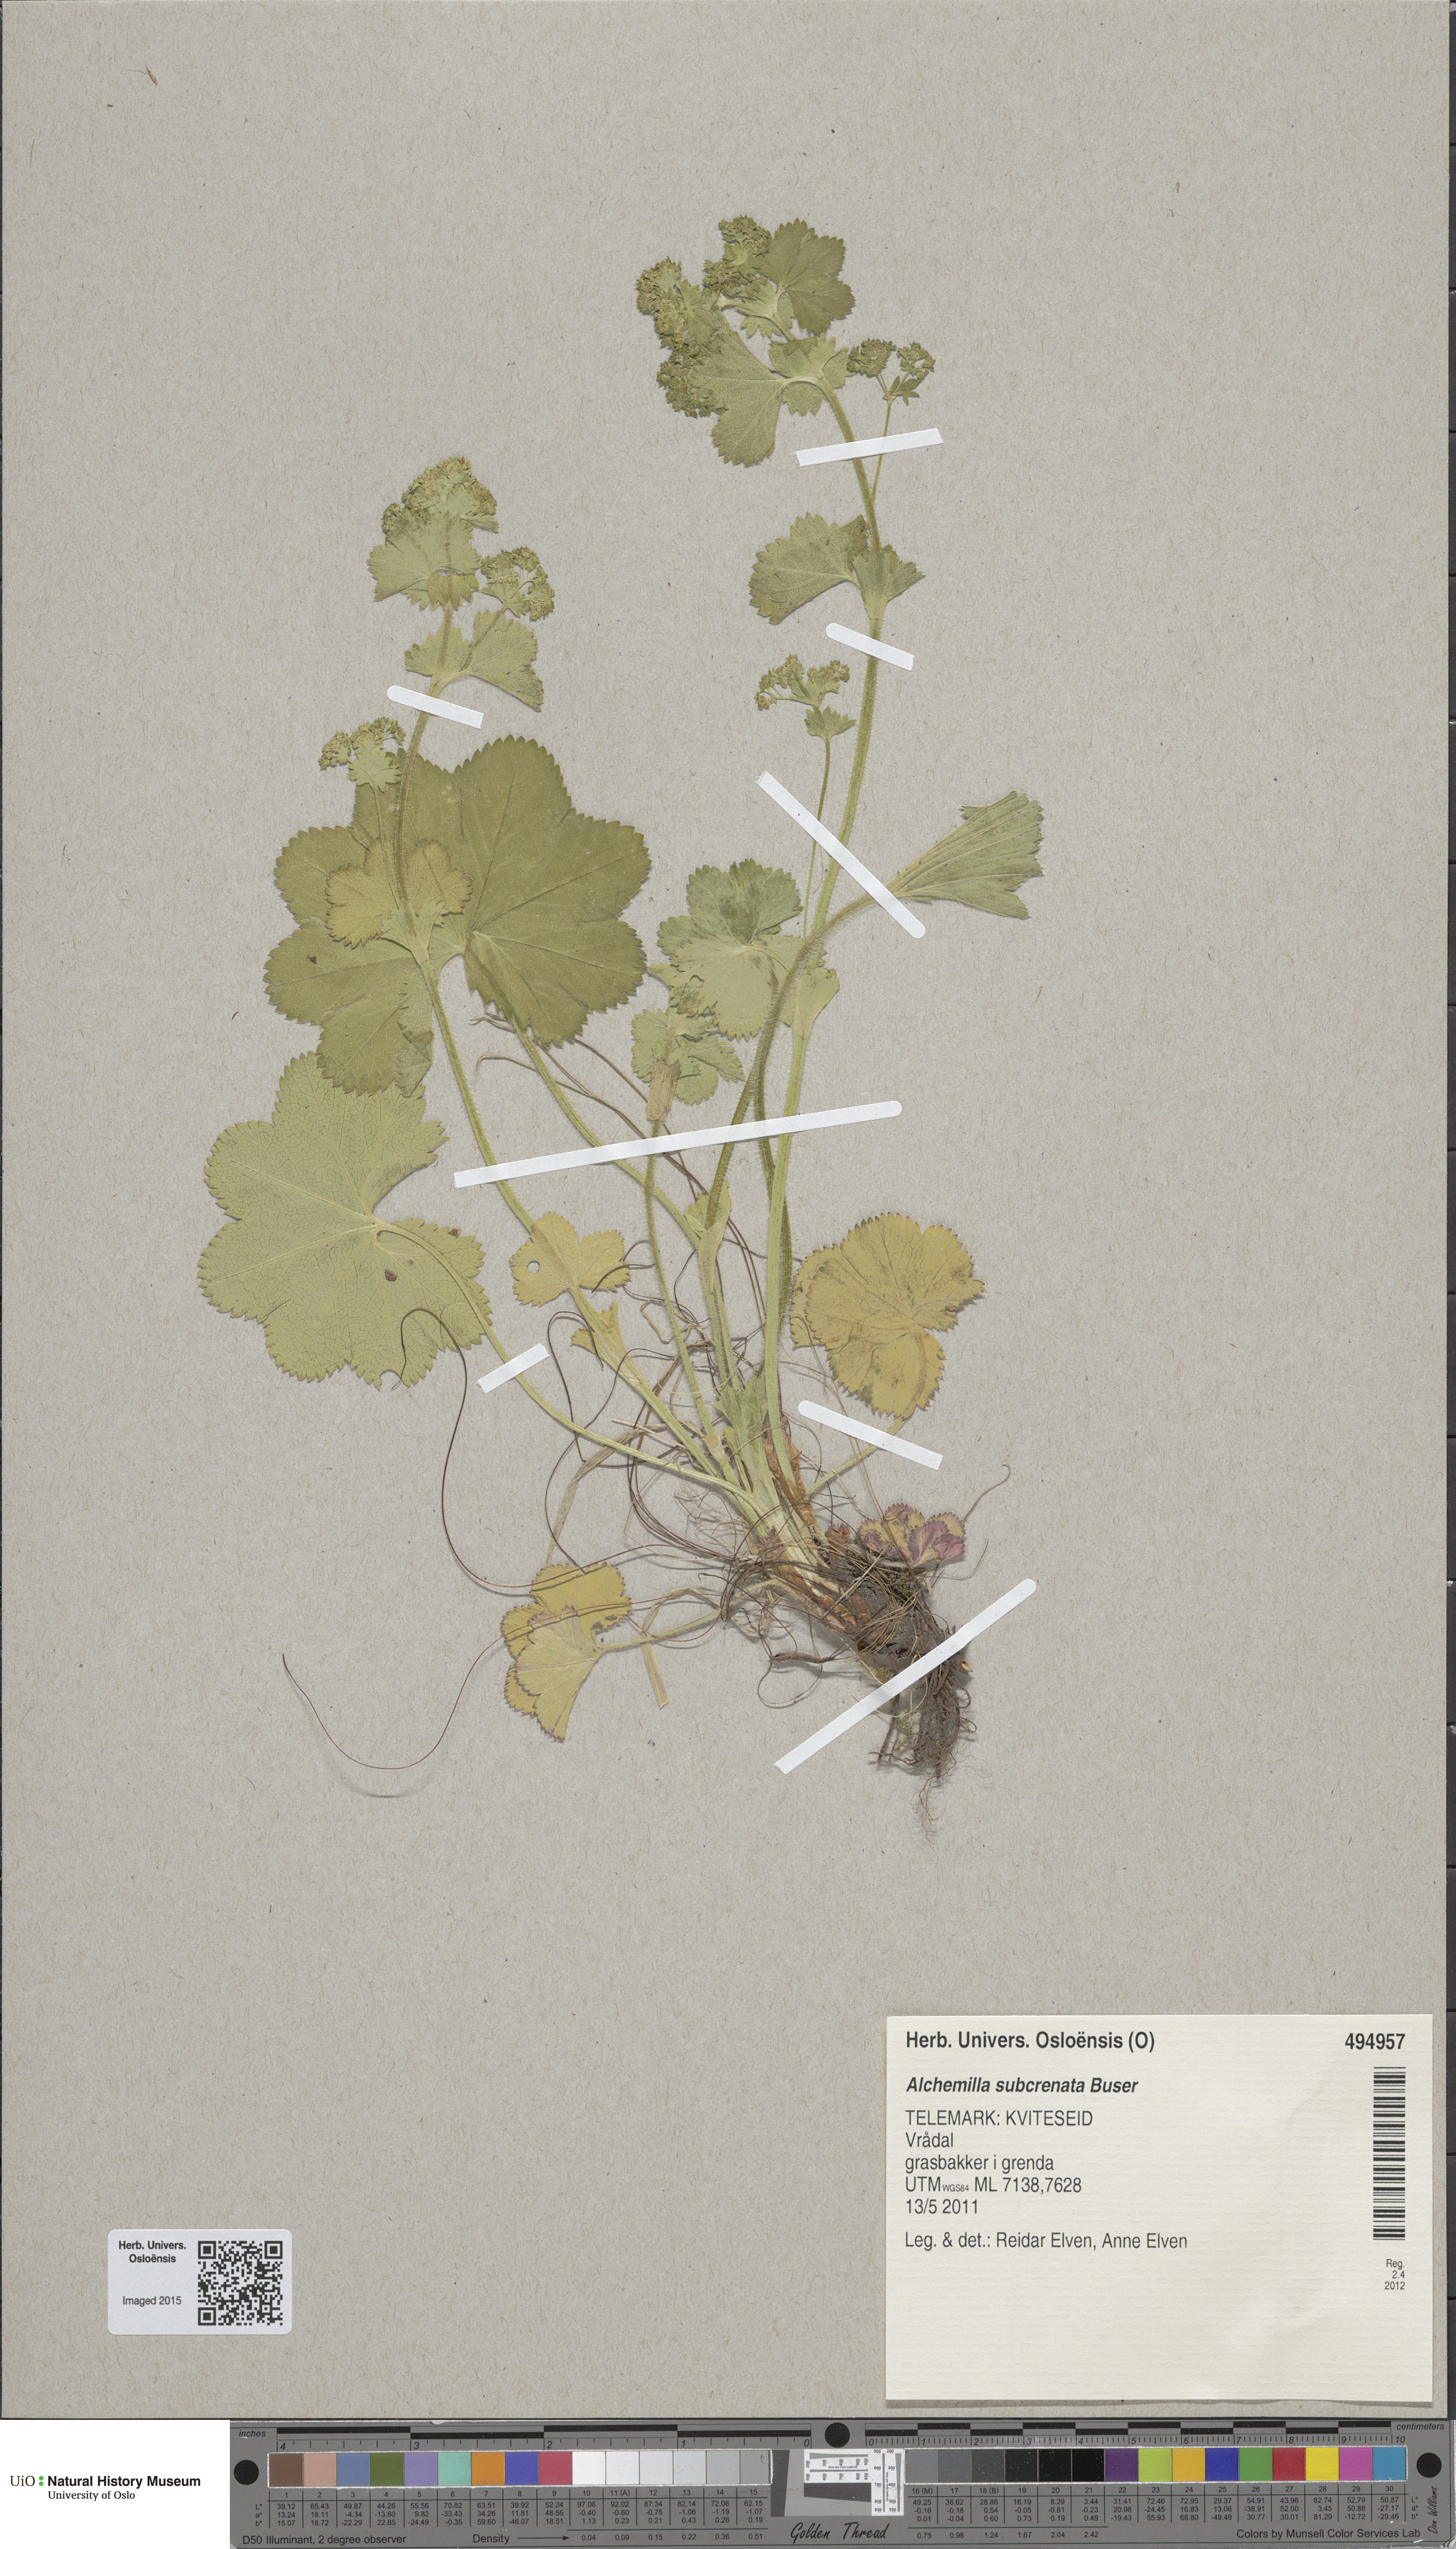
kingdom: Plantae
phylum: Tracheophyta
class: Magnoliopsida
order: Rosales
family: Rosaceae
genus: Alchemilla
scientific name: Alchemilla subcrenata
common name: Broadtooth lady's mantle
